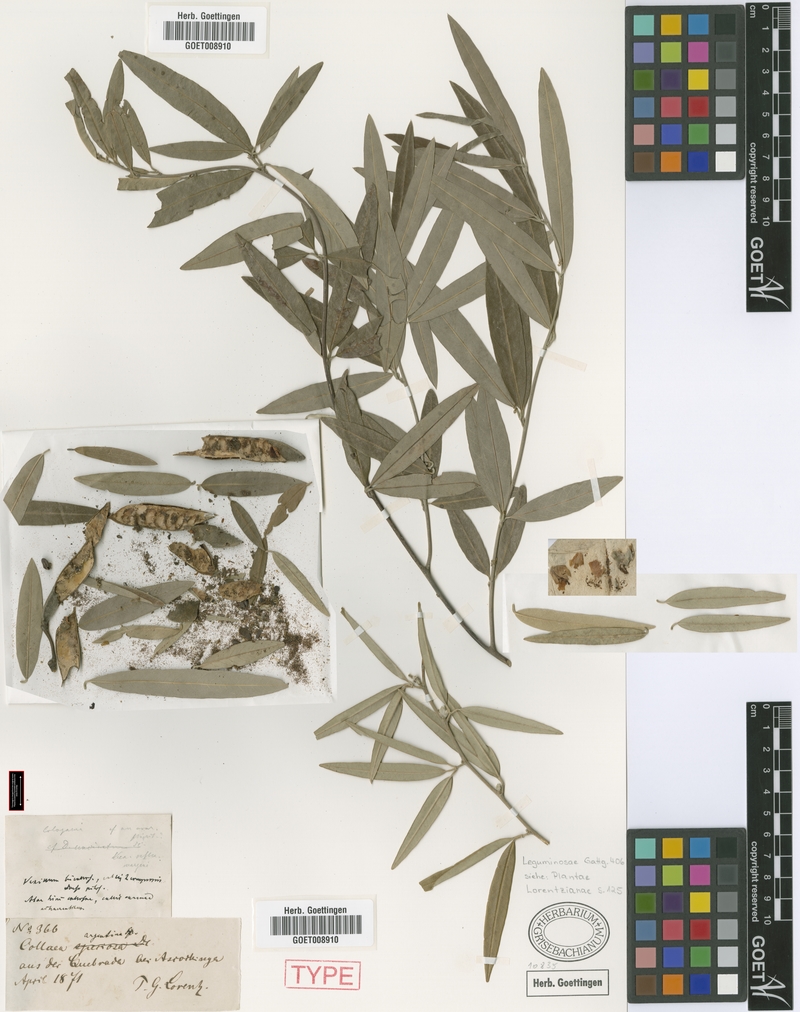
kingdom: Plantae
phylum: Tracheophyta
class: Magnoliopsida
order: Fabales
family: Fabaceae
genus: Nanogalactia
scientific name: Nanogalactia heterophylla
